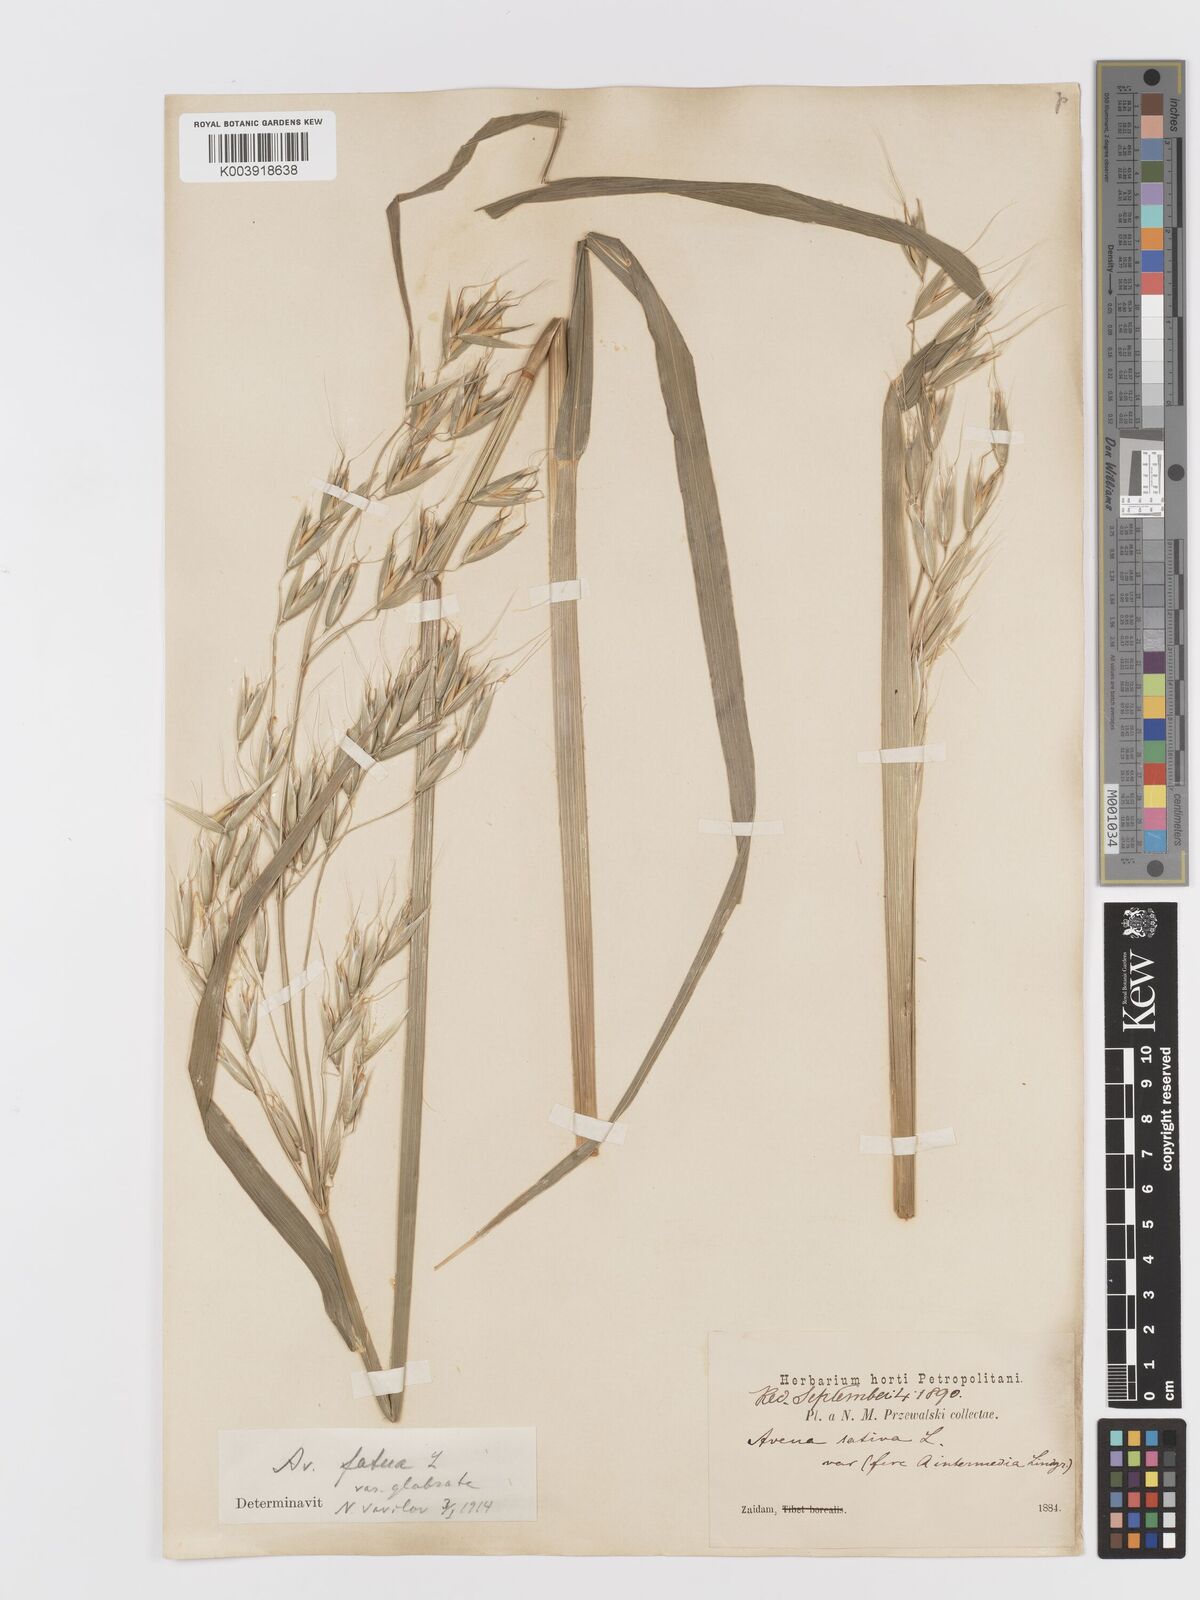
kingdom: Plantae
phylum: Tracheophyta
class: Liliopsida
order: Poales
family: Poaceae
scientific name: Poaceae
